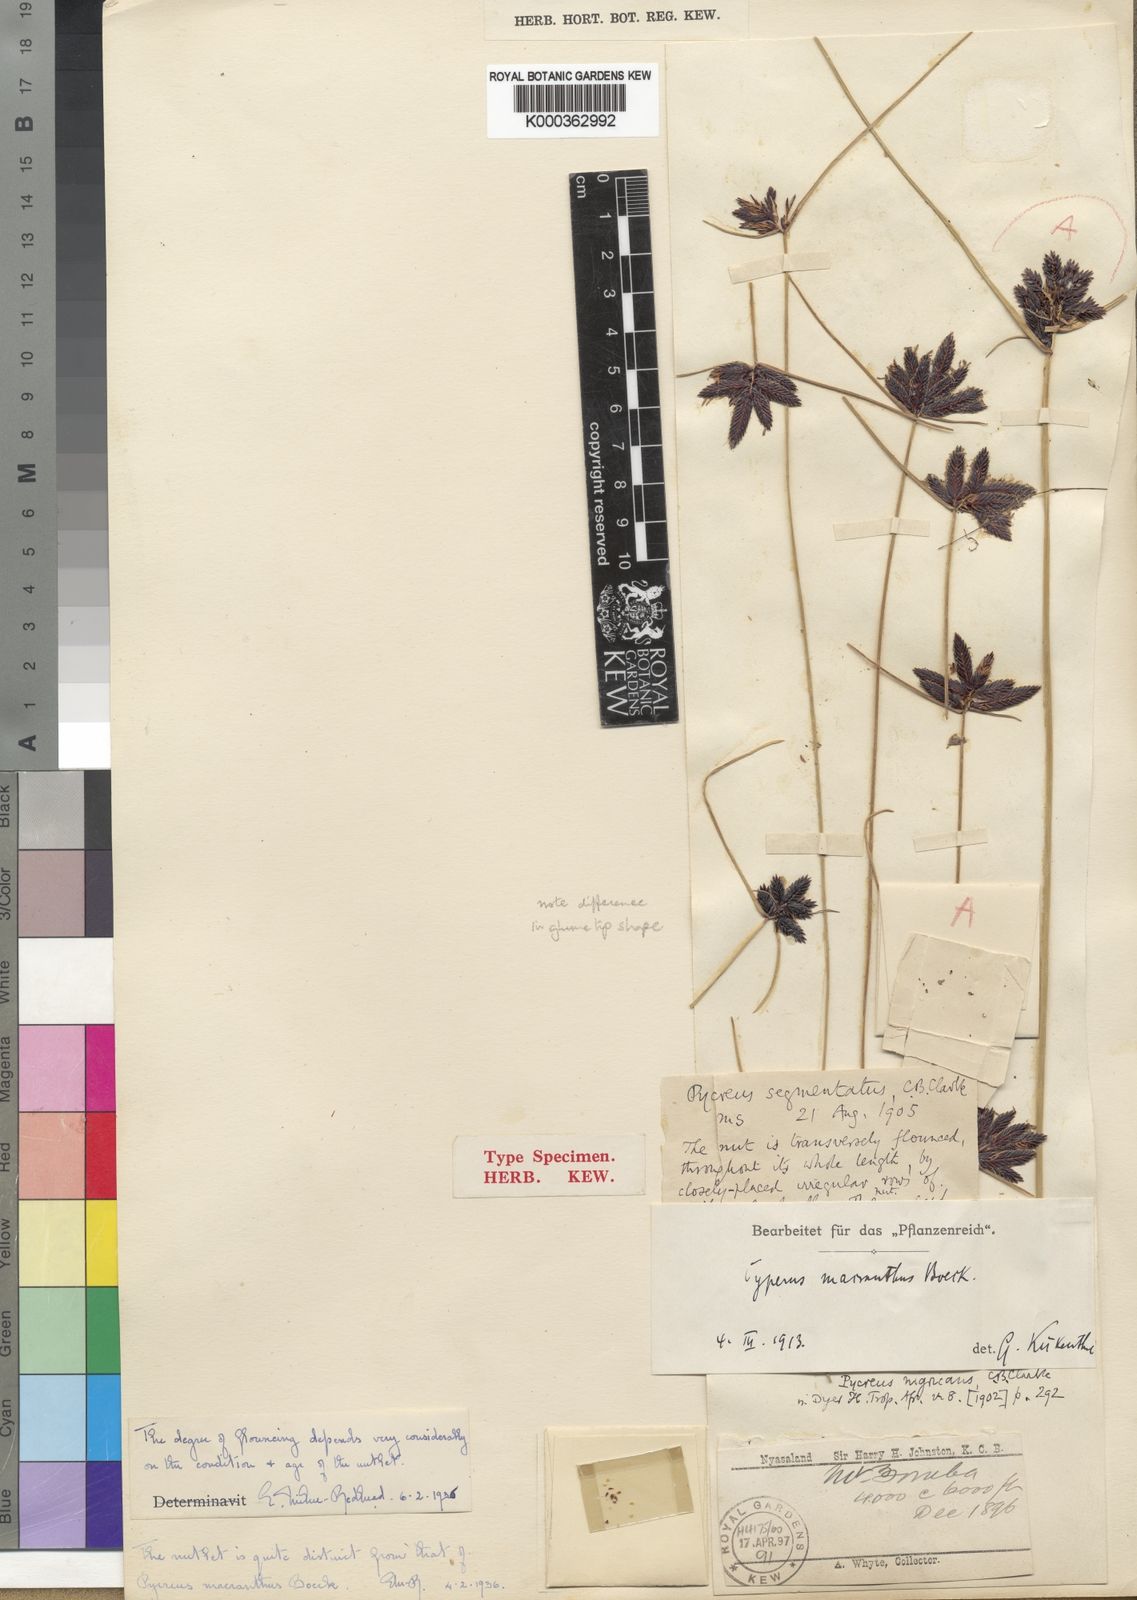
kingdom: Plantae
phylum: Tracheophyta
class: Liliopsida
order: Poales
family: Cyperaceae
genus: Cyperus
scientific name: Cyperus nigricans
